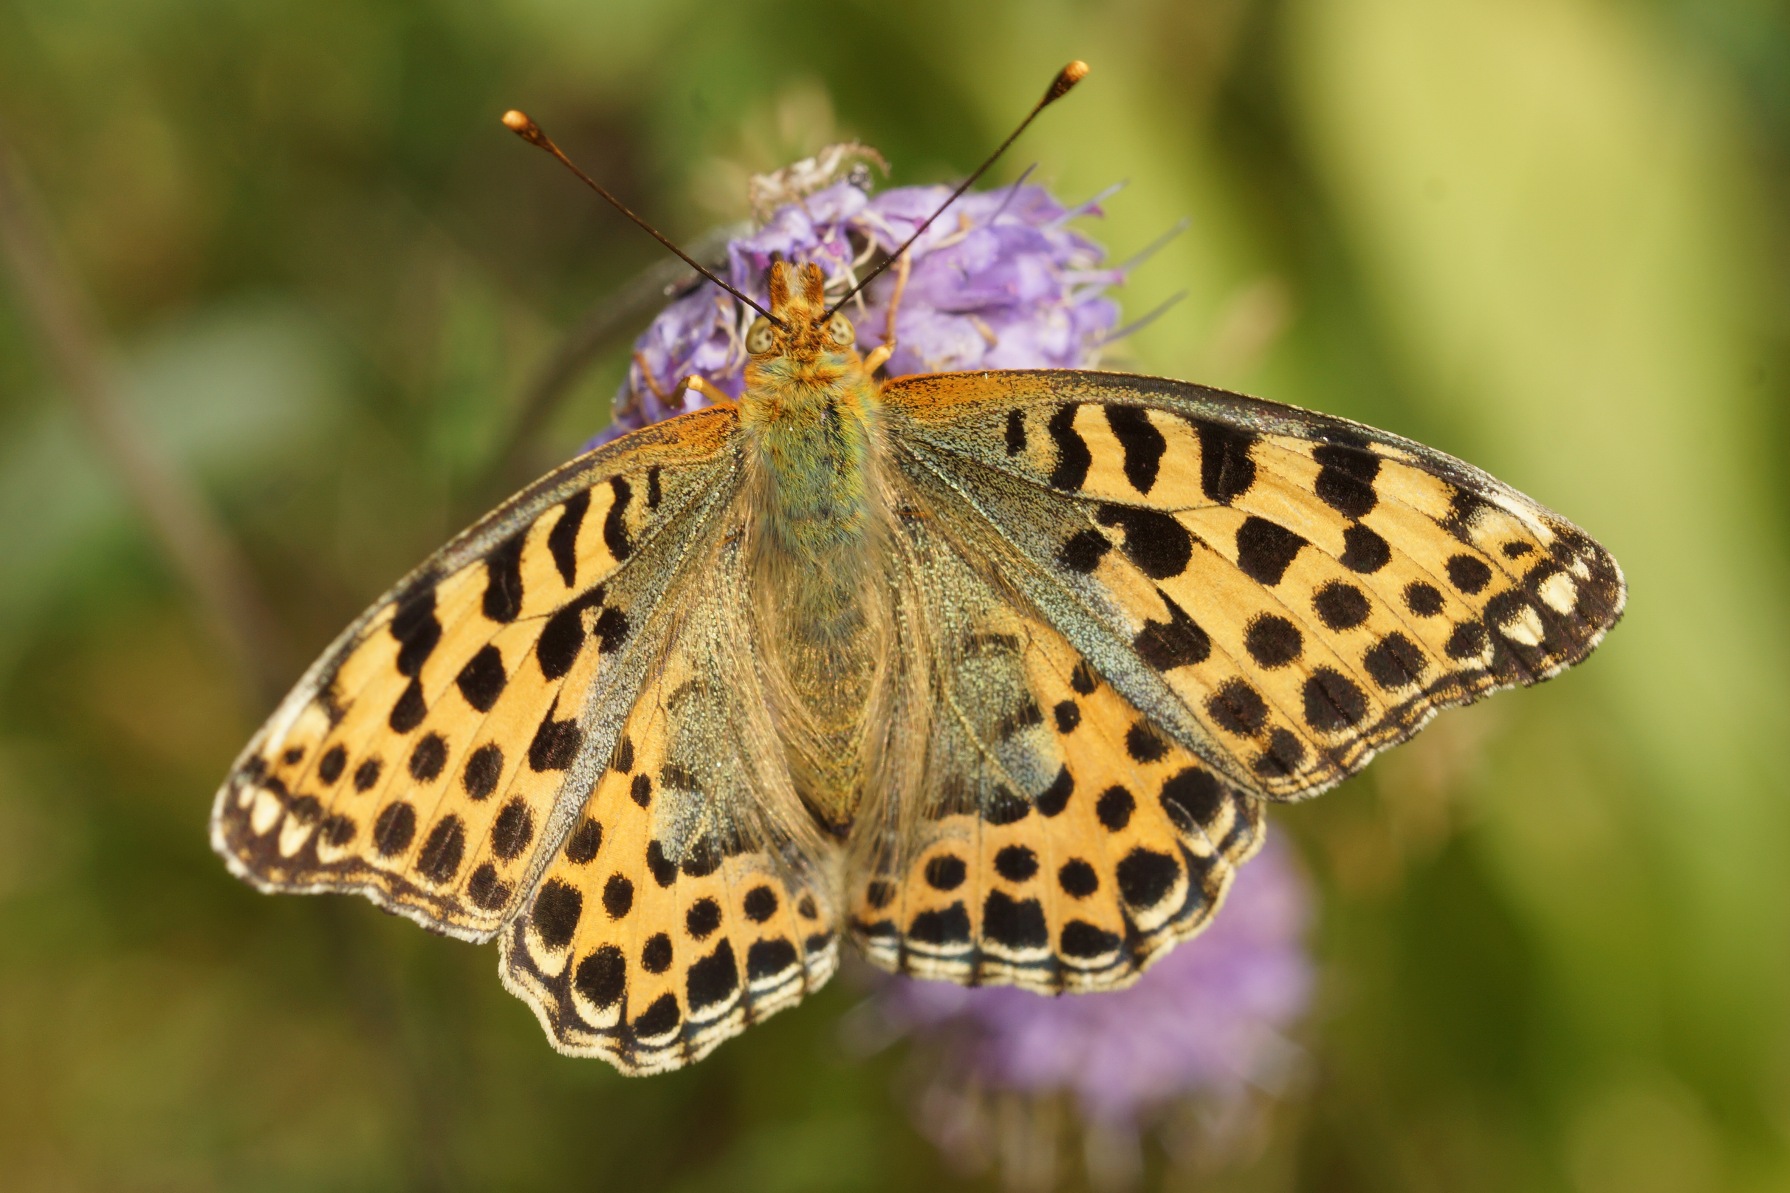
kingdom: Animalia
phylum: Arthropoda
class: Insecta
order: Lepidoptera
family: Nymphalidae
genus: Issoria
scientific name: Issoria lathonia
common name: Storplettet perlemorsommerfugl
